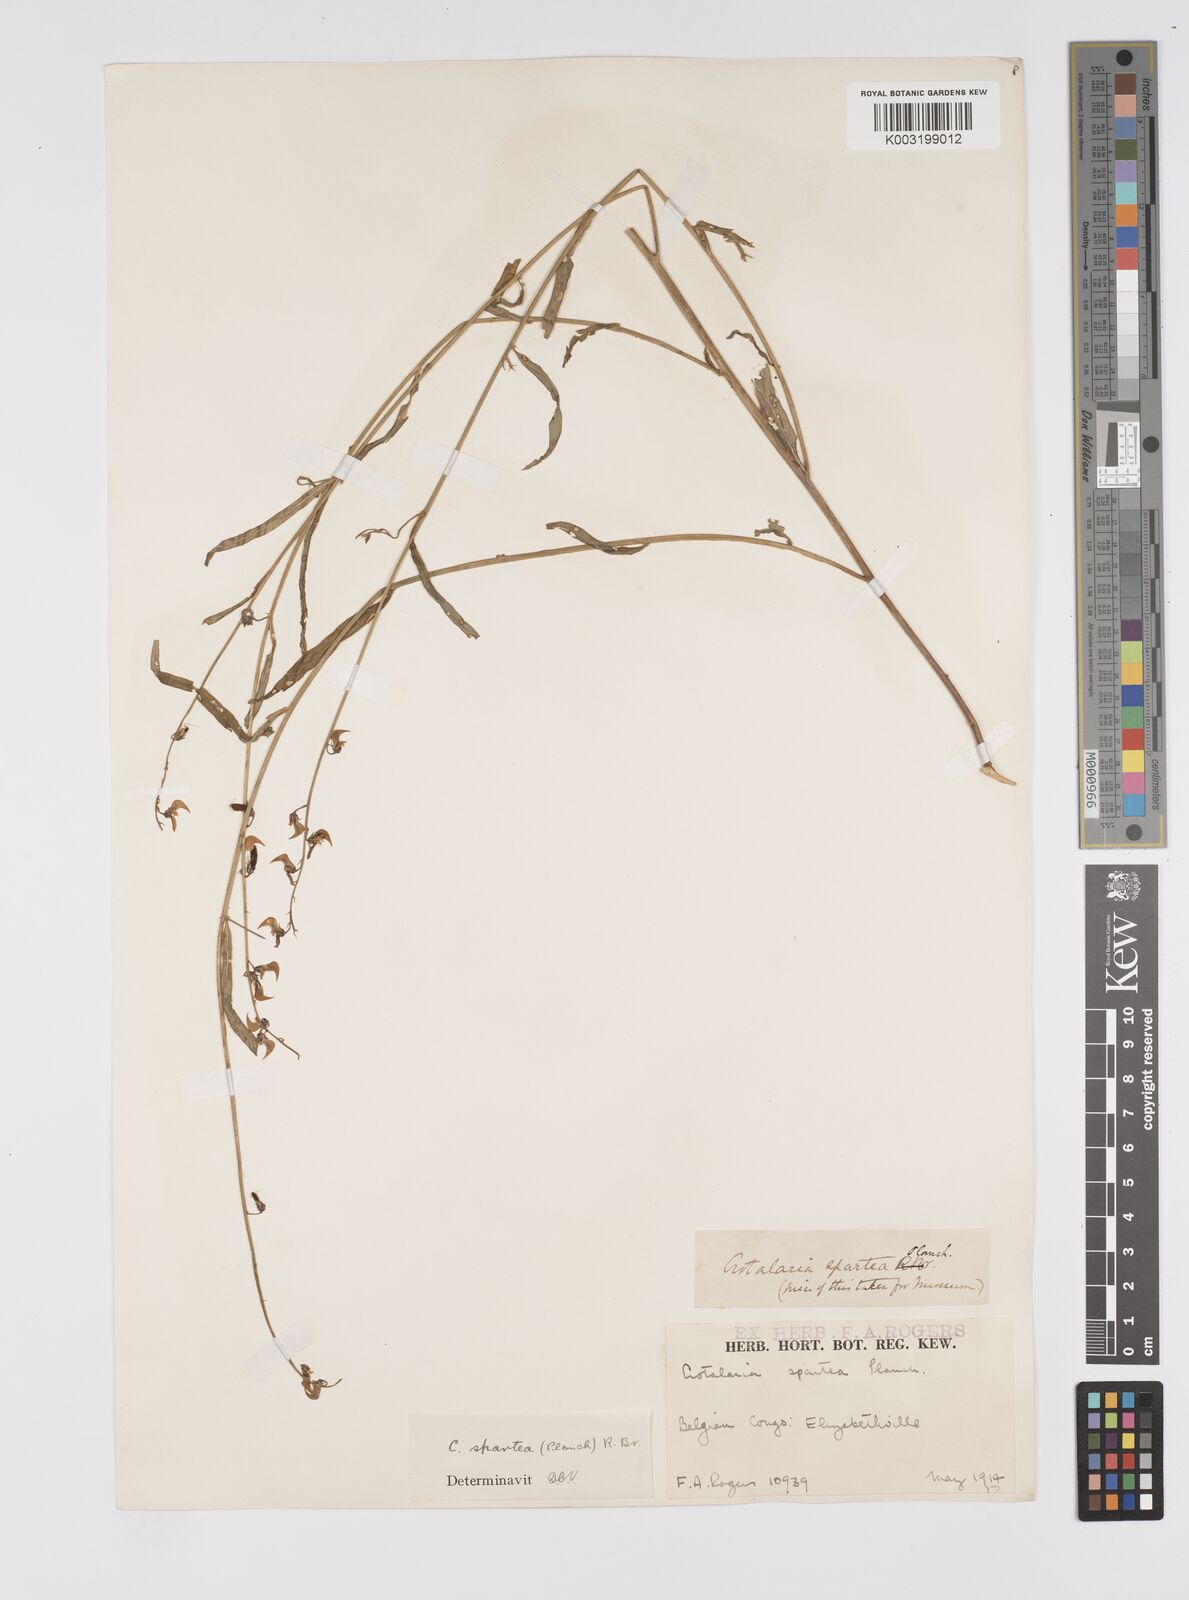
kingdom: Plantae
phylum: Tracheophyta
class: Magnoliopsida
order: Fabales
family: Fabaceae
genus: Crotalaria
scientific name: Crotalaria spartea
